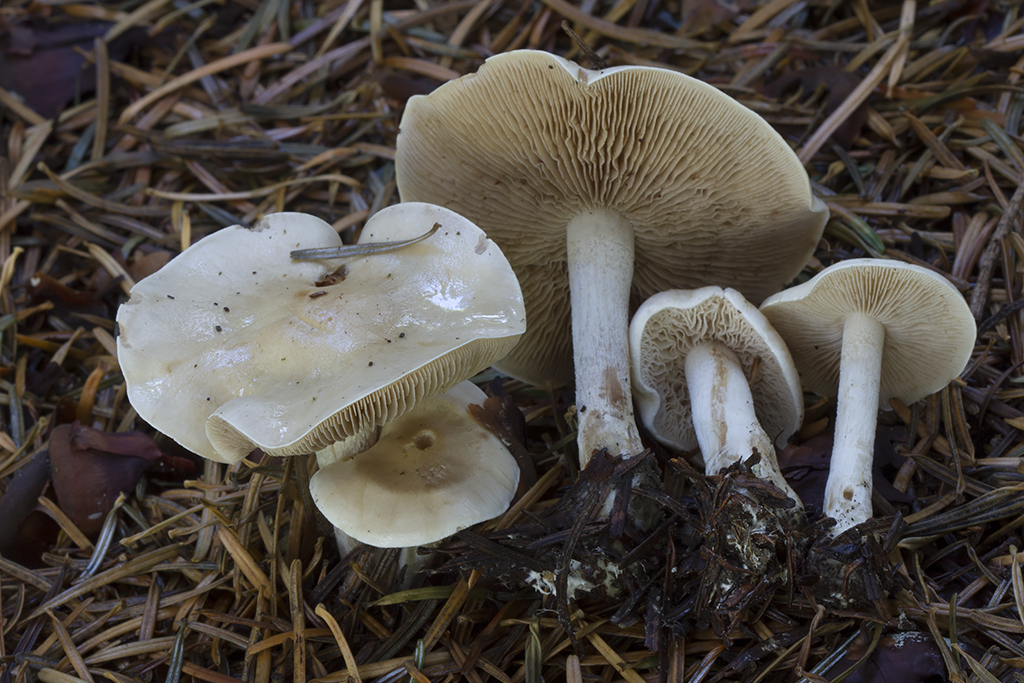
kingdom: Fungi
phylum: Basidiomycota
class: Agaricomycetes
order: Agaricales
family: Hymenogastraceae
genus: Hebeloma
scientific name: Hebeloma leucosarx
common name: Birch poisonpie
